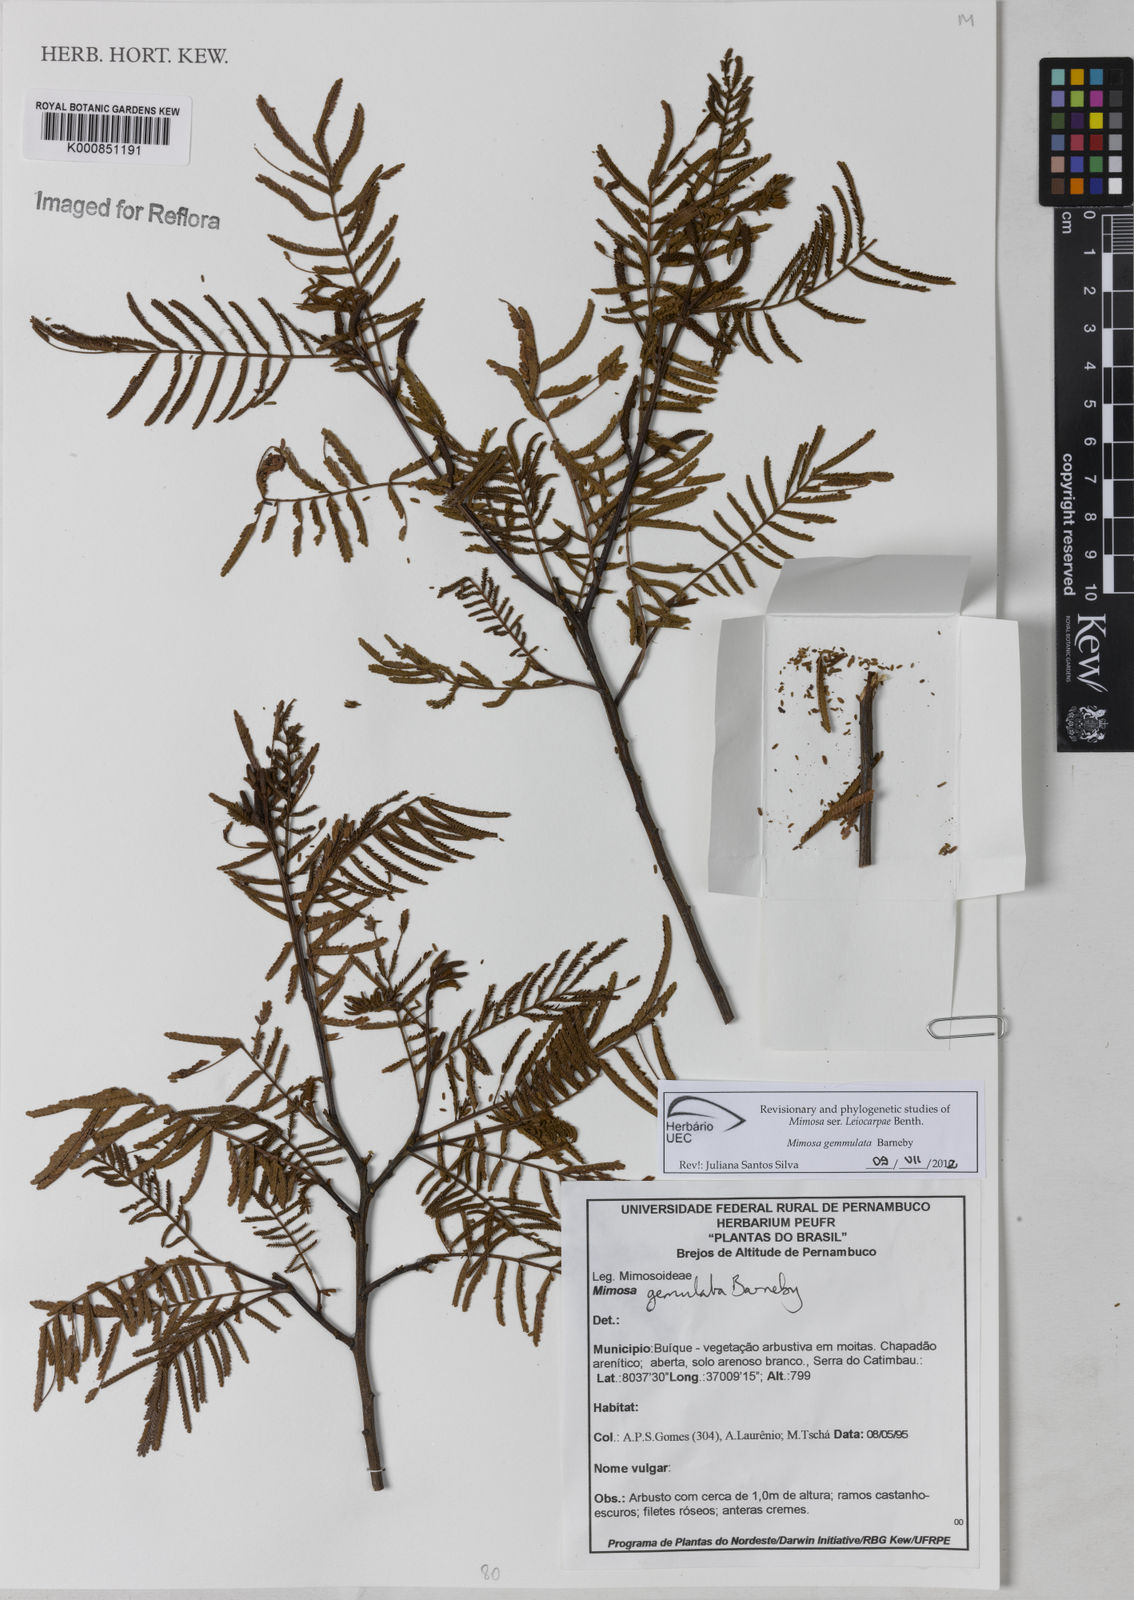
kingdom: Plantae
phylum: Tracheophyta
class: Magnoliopsida
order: Fabales
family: Fabaceae
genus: Mimosa
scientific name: Mimosa gemmulata
